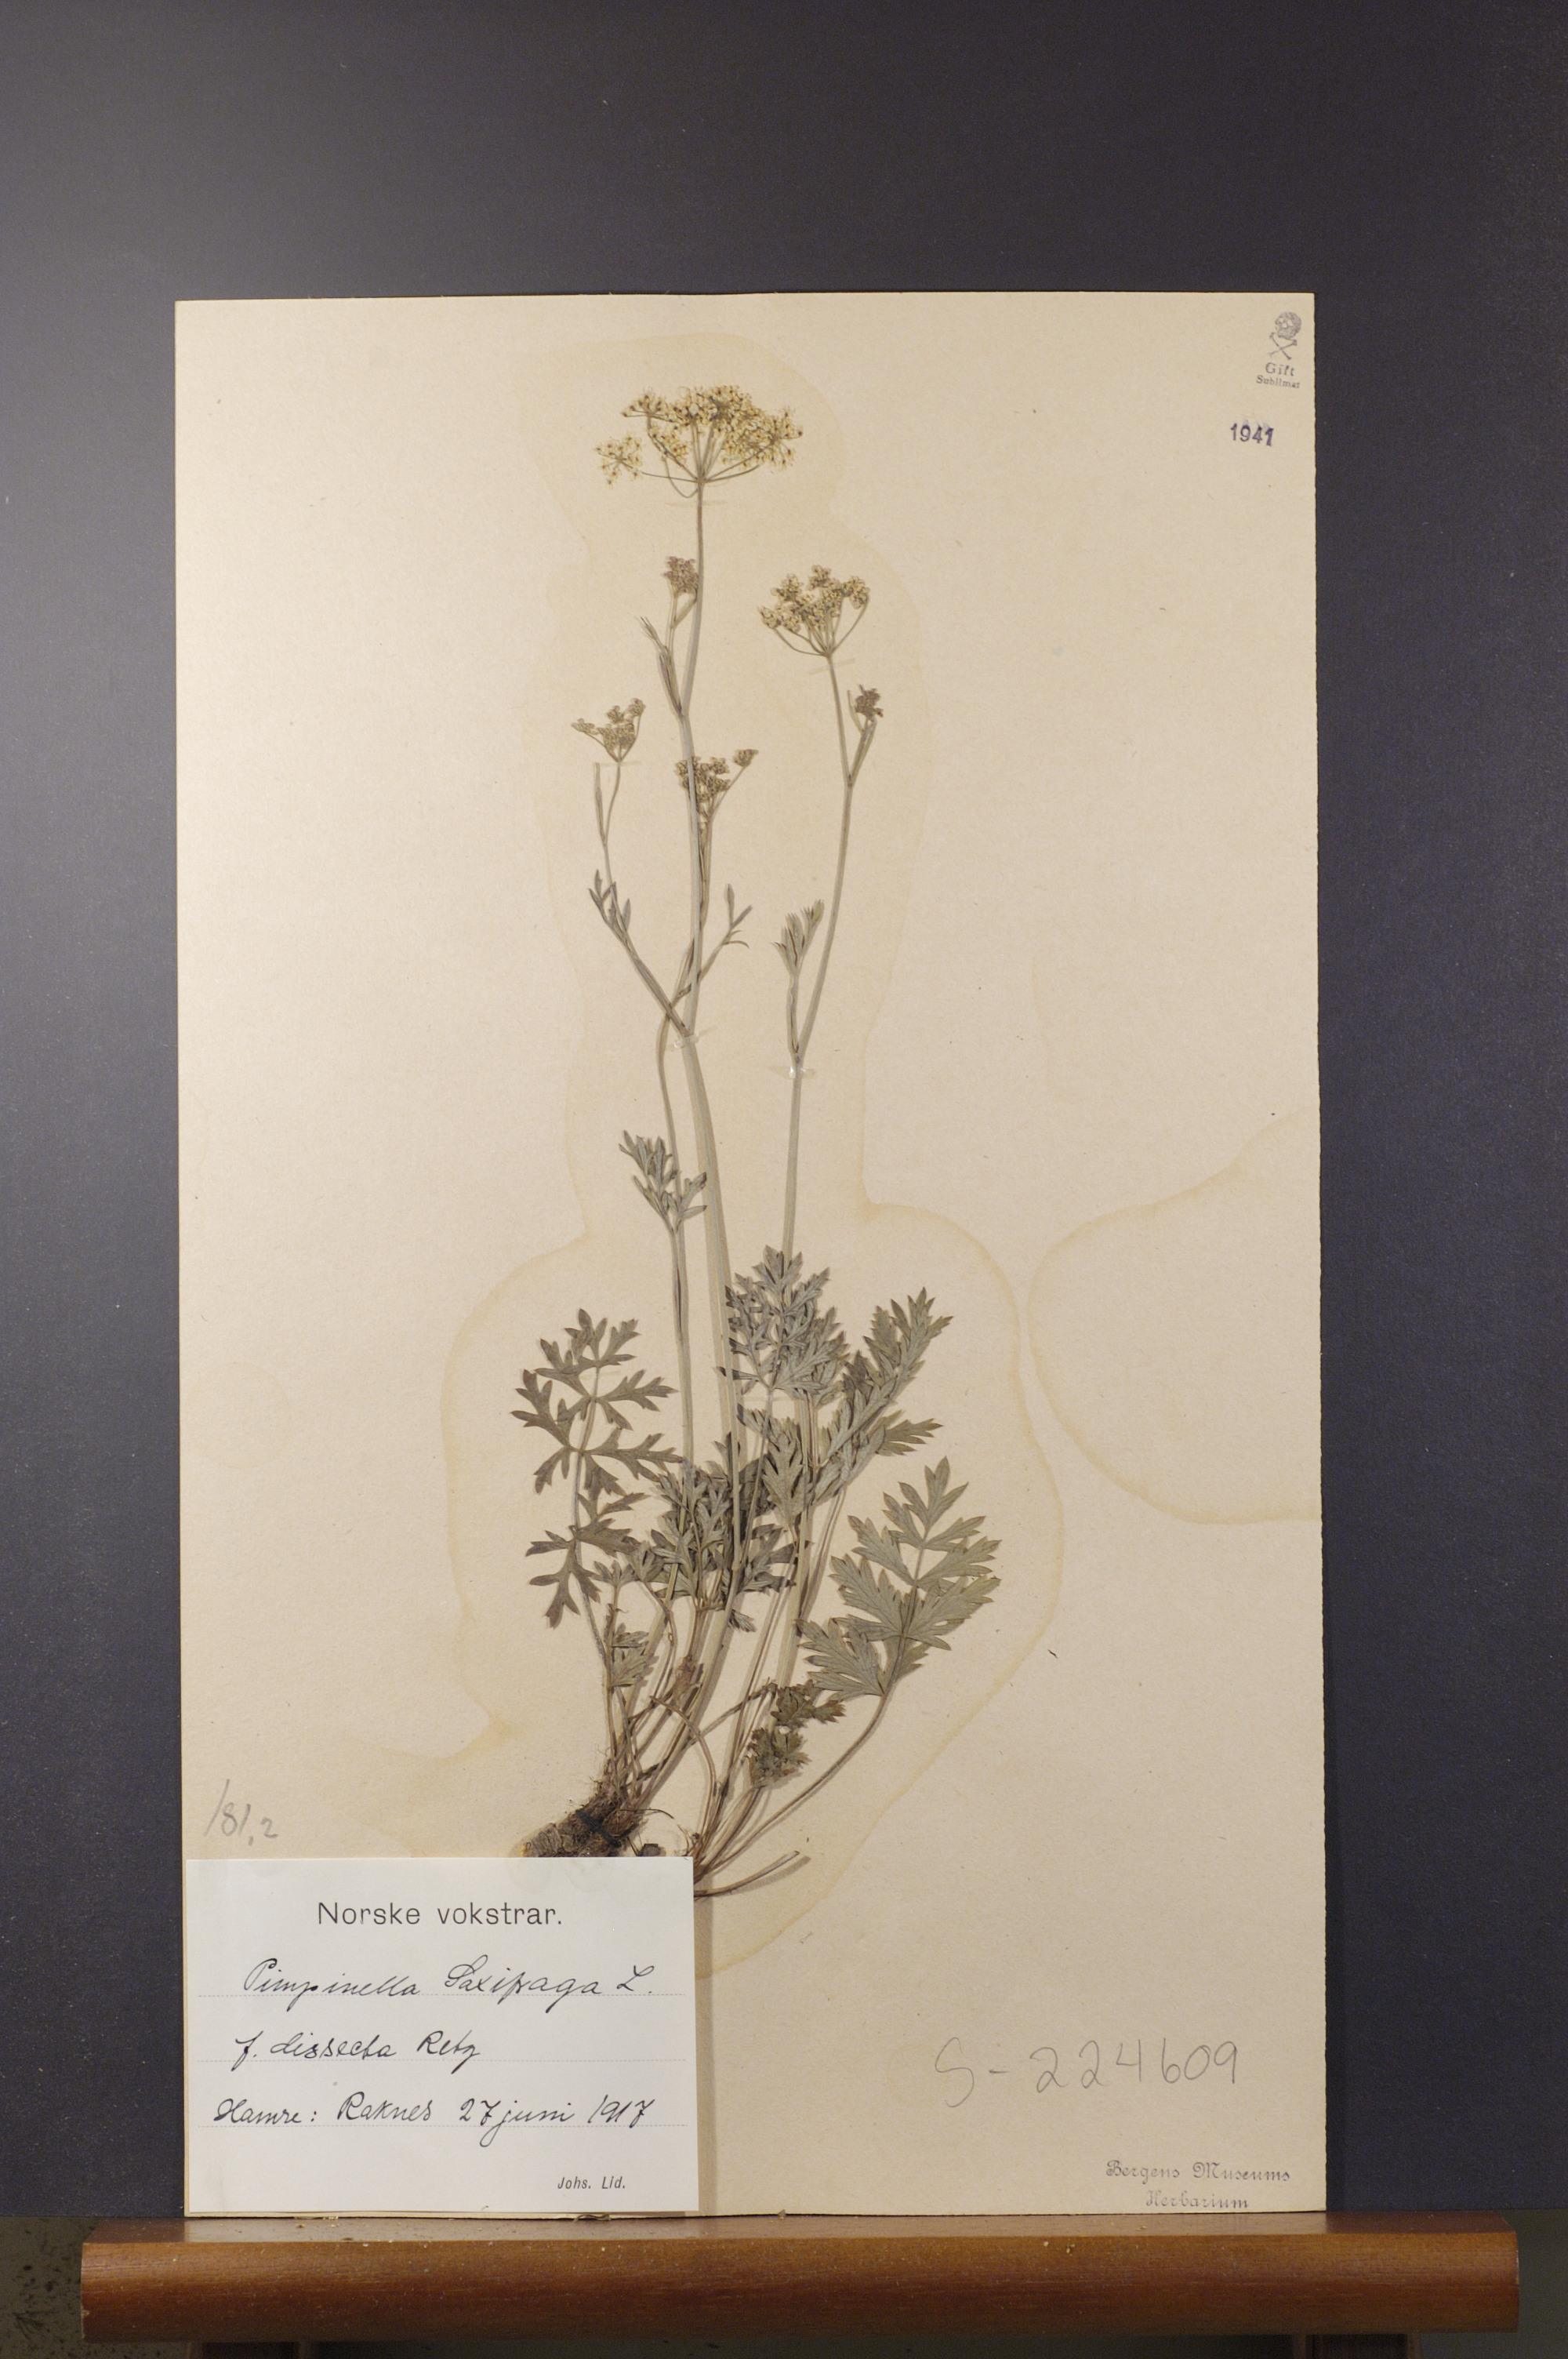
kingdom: Plantae
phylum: Tracheophyta
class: Magnoliopsida
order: Apiales
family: Apiaceae
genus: Pimpinella
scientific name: Pimpinella saxifraga
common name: Burnet-saxifrage
